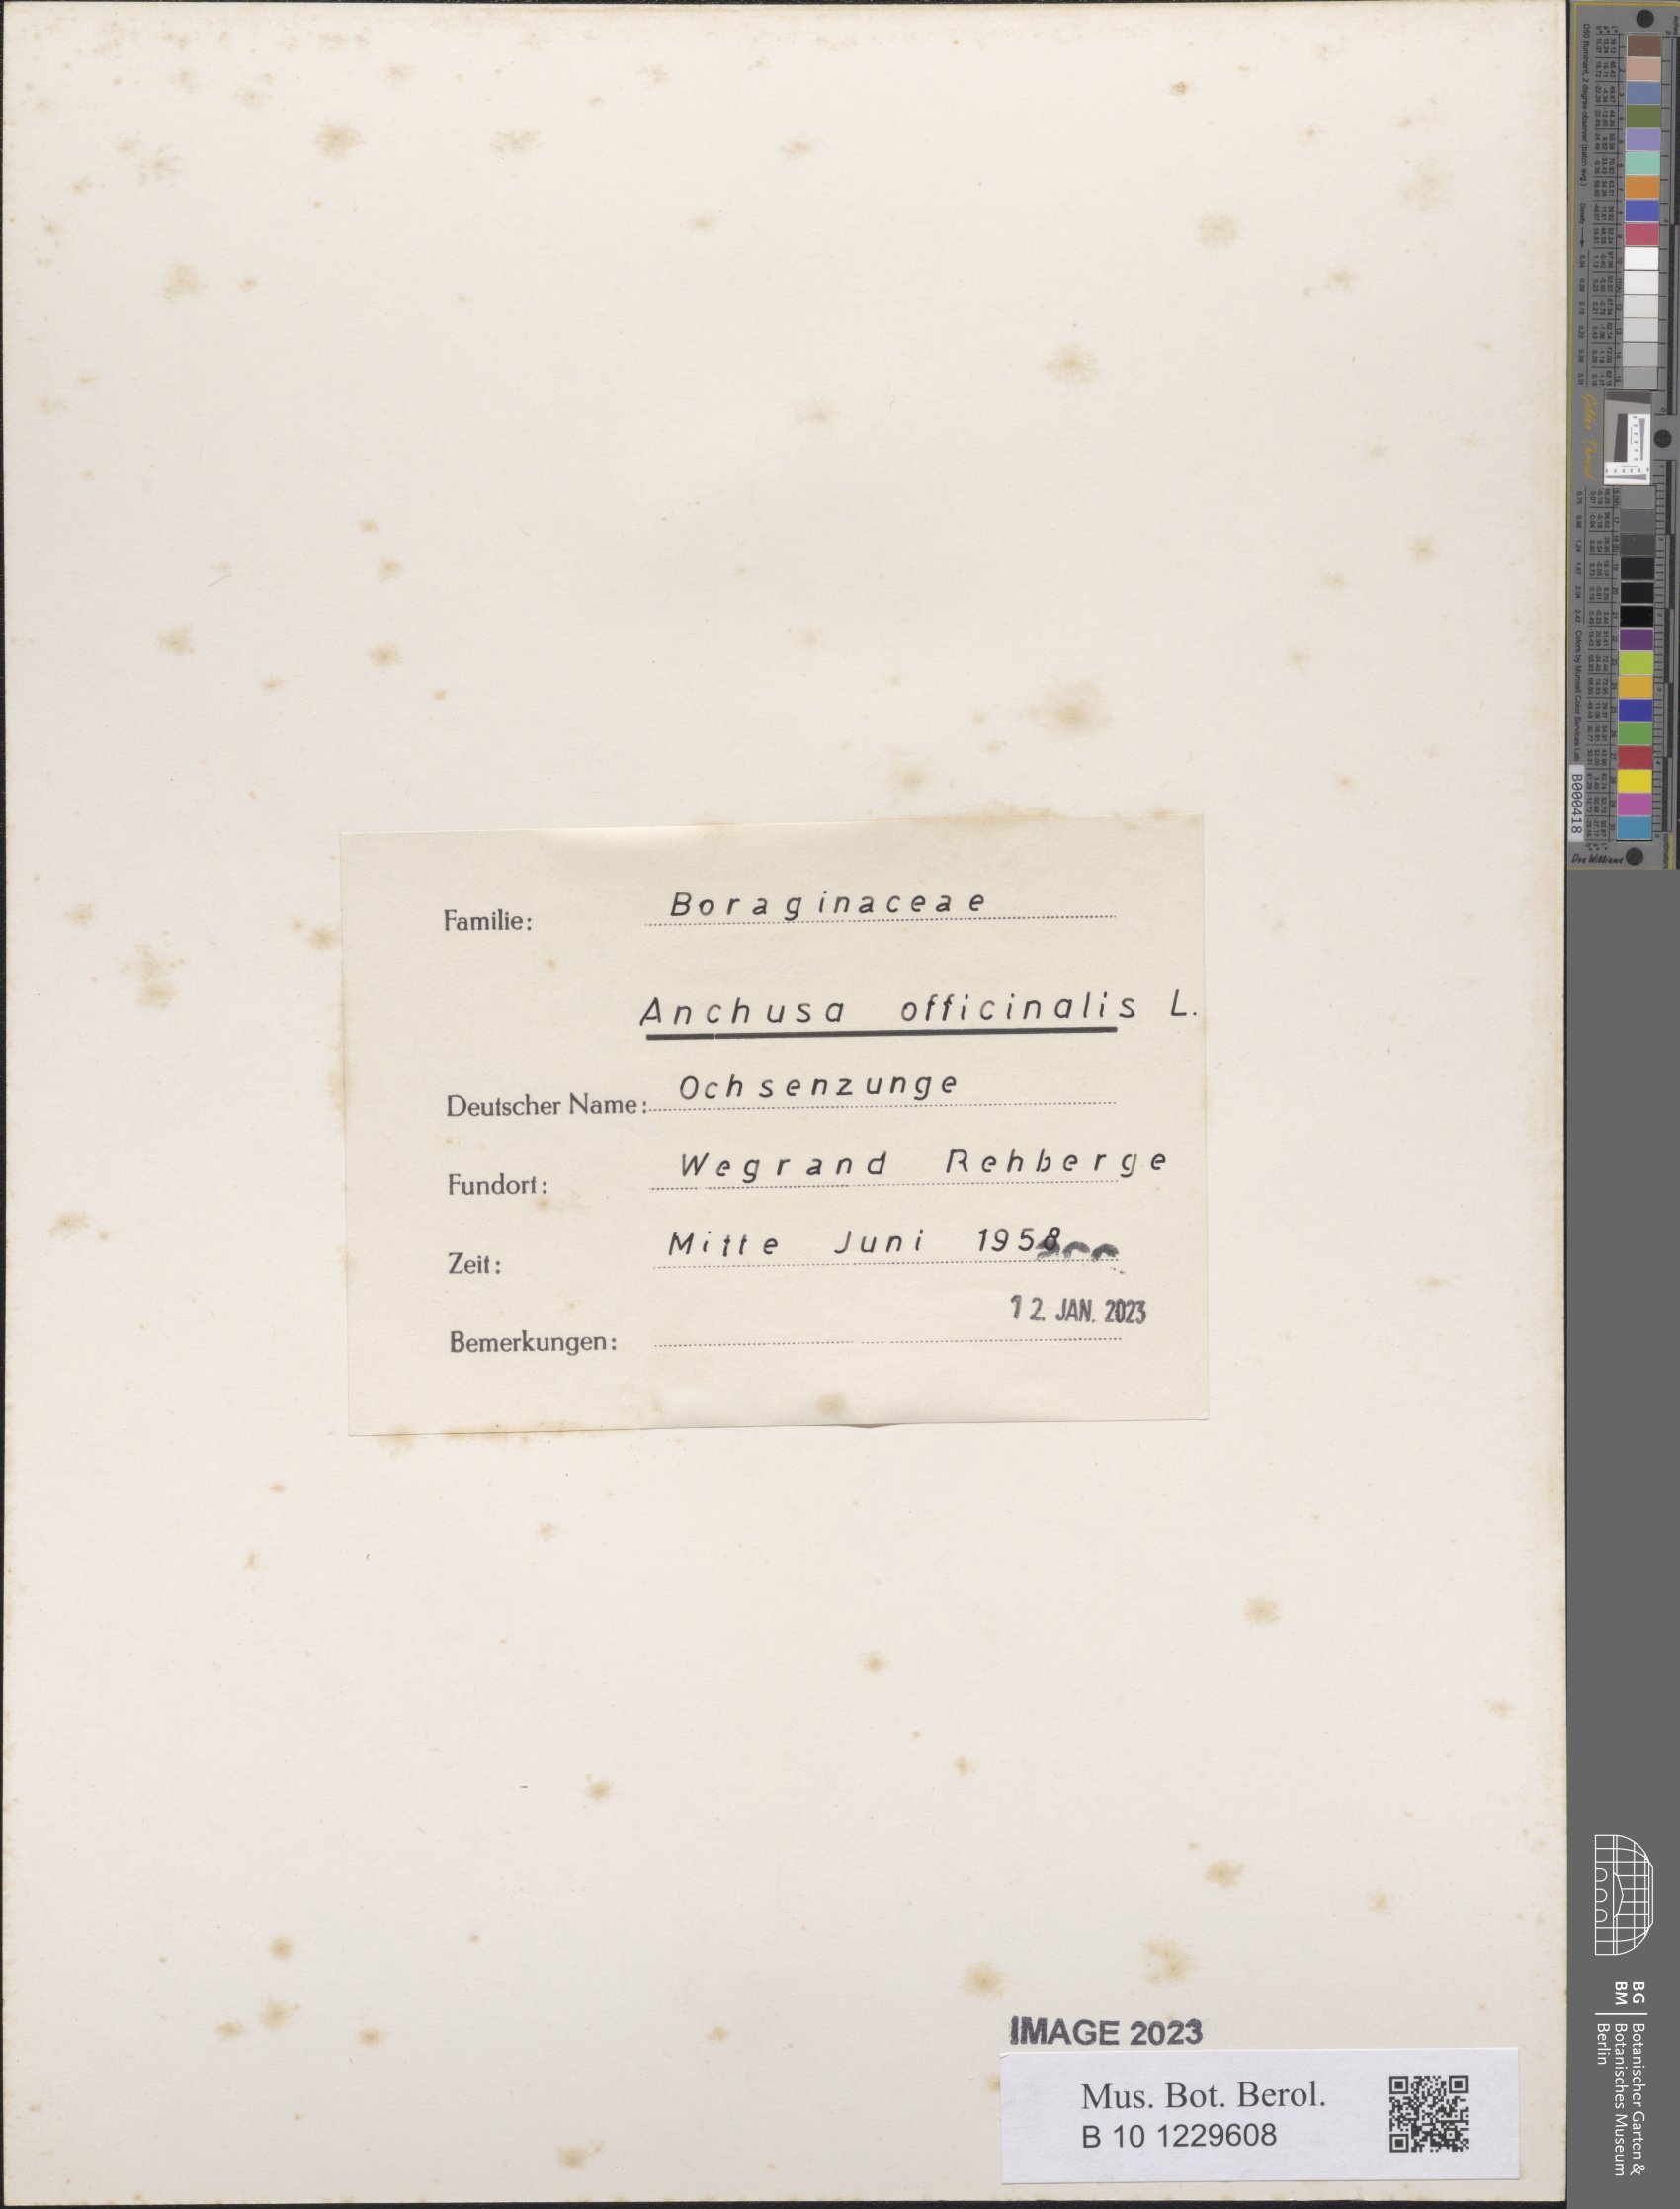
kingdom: Plantae
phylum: Tracheophyta
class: Magnoliopsida
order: Boraginales
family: Boraginaceae
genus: Anchusa
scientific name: Anchusa officinalis
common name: Alkanet
